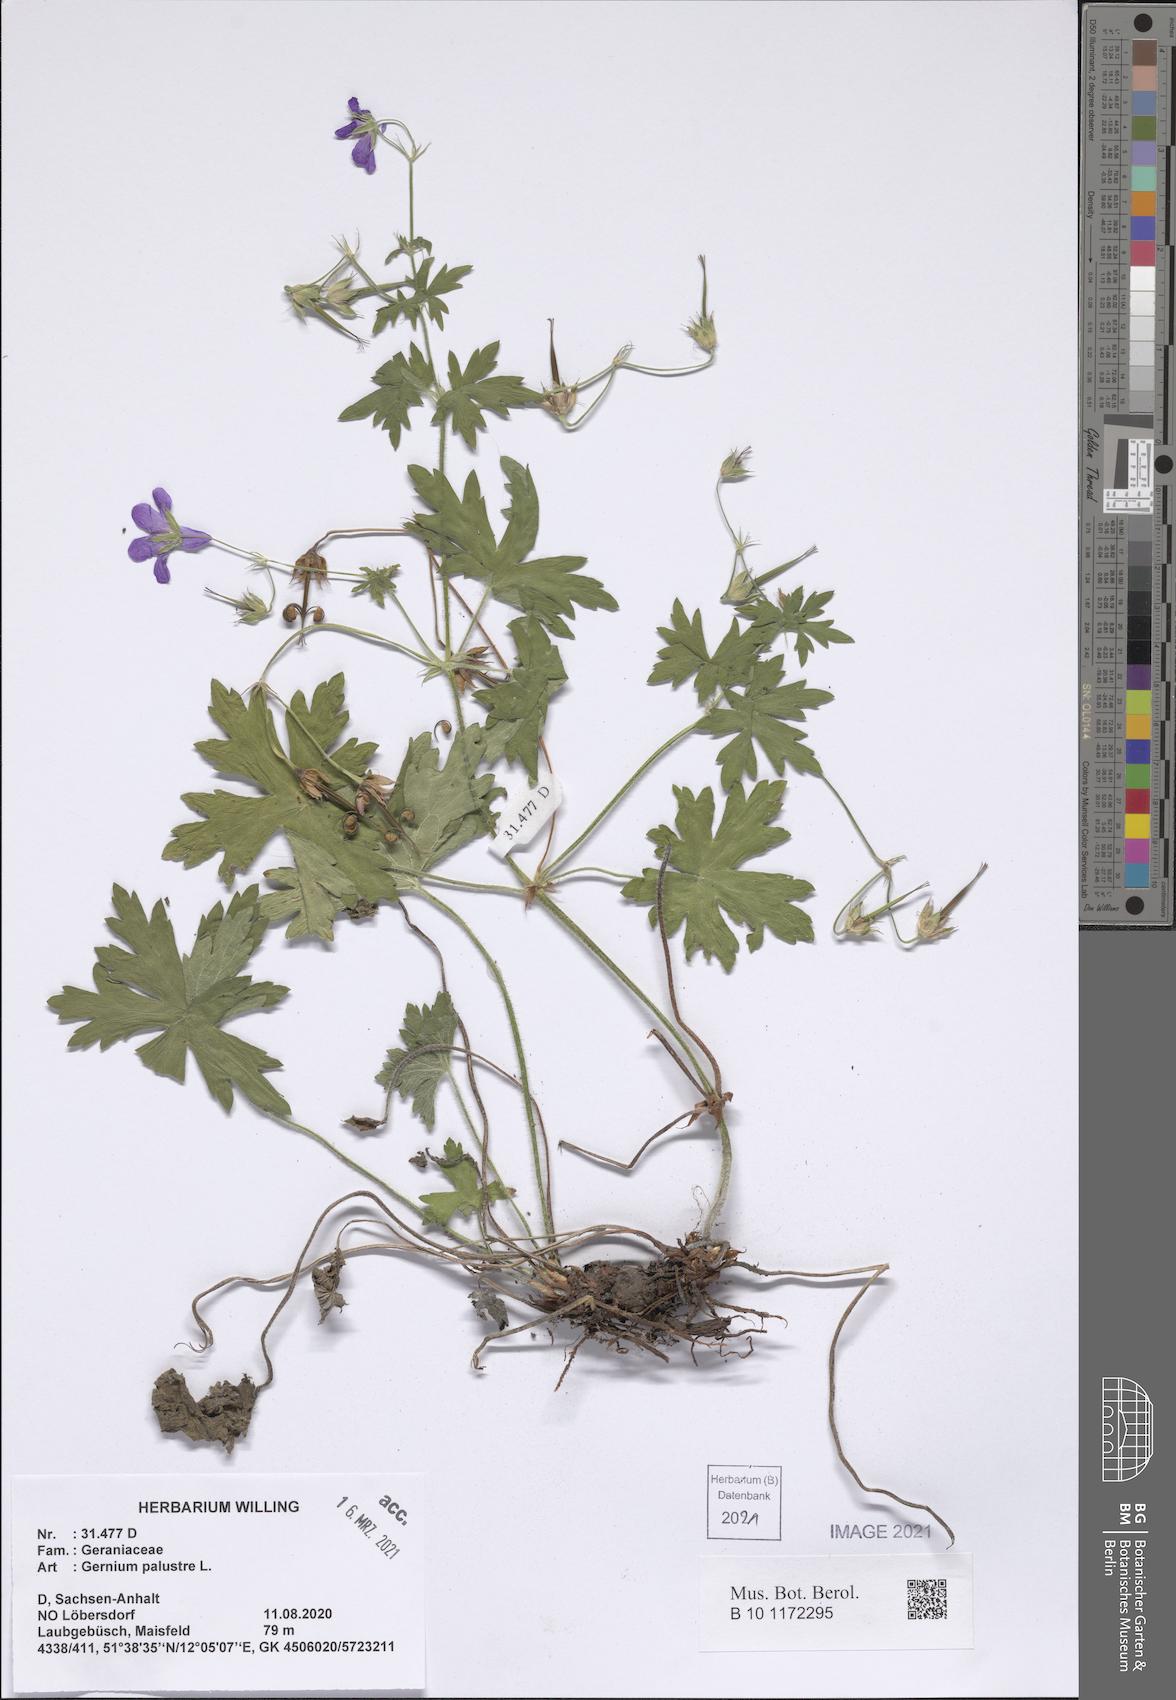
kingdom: Plantae
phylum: Tracheophyta
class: Magnoliopsida
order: Geraniales
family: Geraniaceae
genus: Geranium
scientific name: Geranium palustre
